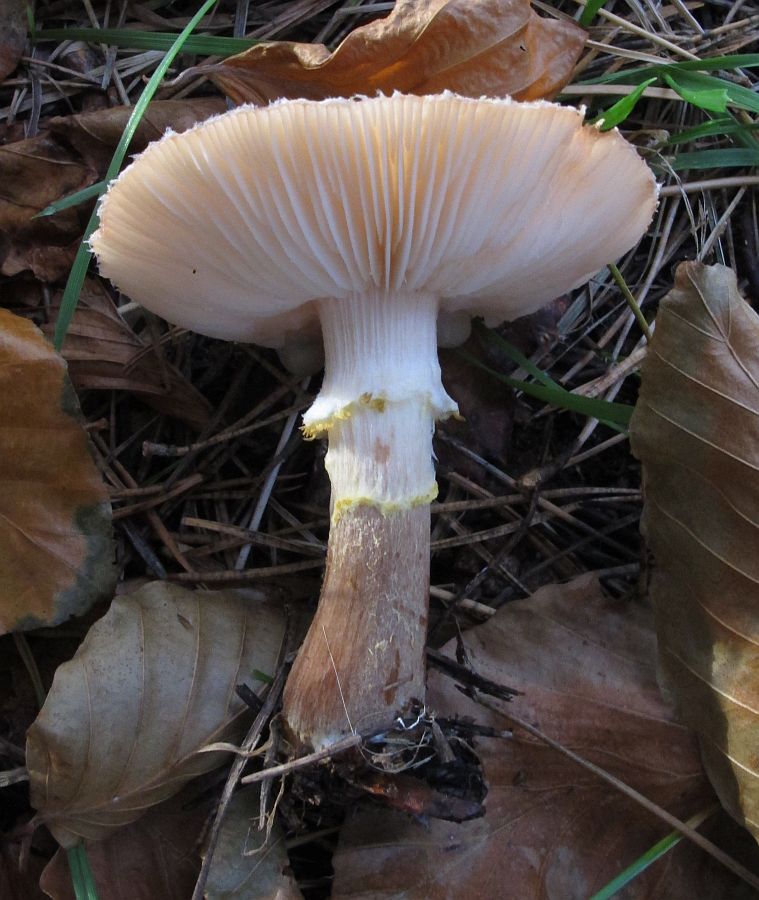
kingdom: Fungi
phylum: Basidiomycota
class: Agaricomycetes
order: Agaricales
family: Physalacriaceae
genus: Armillaria
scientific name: Armillaria lutea
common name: køllestokket honningsvamp
